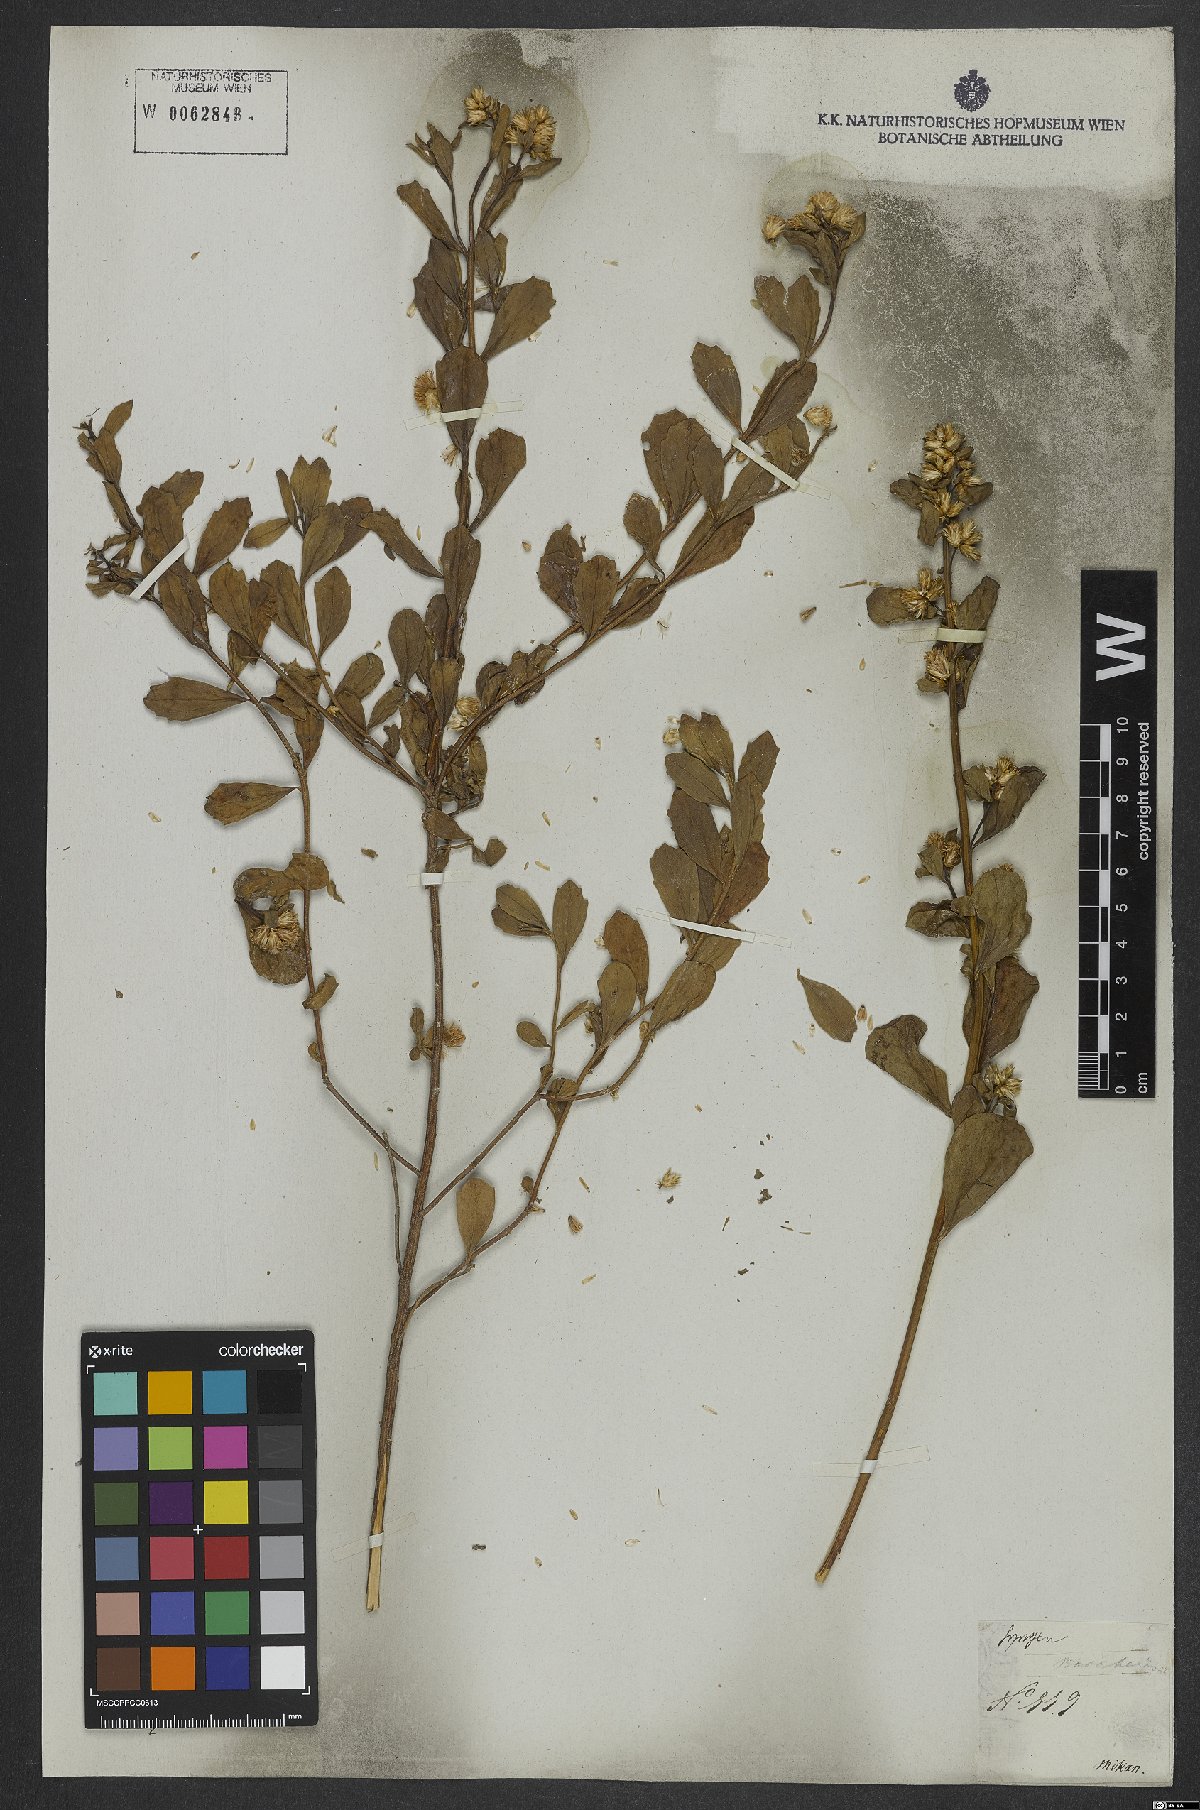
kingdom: Plantae
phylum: Tracheophyta
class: Magnoliopsida
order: Asterales
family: Asteraceae
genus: Baccharis
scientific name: Baccharis
